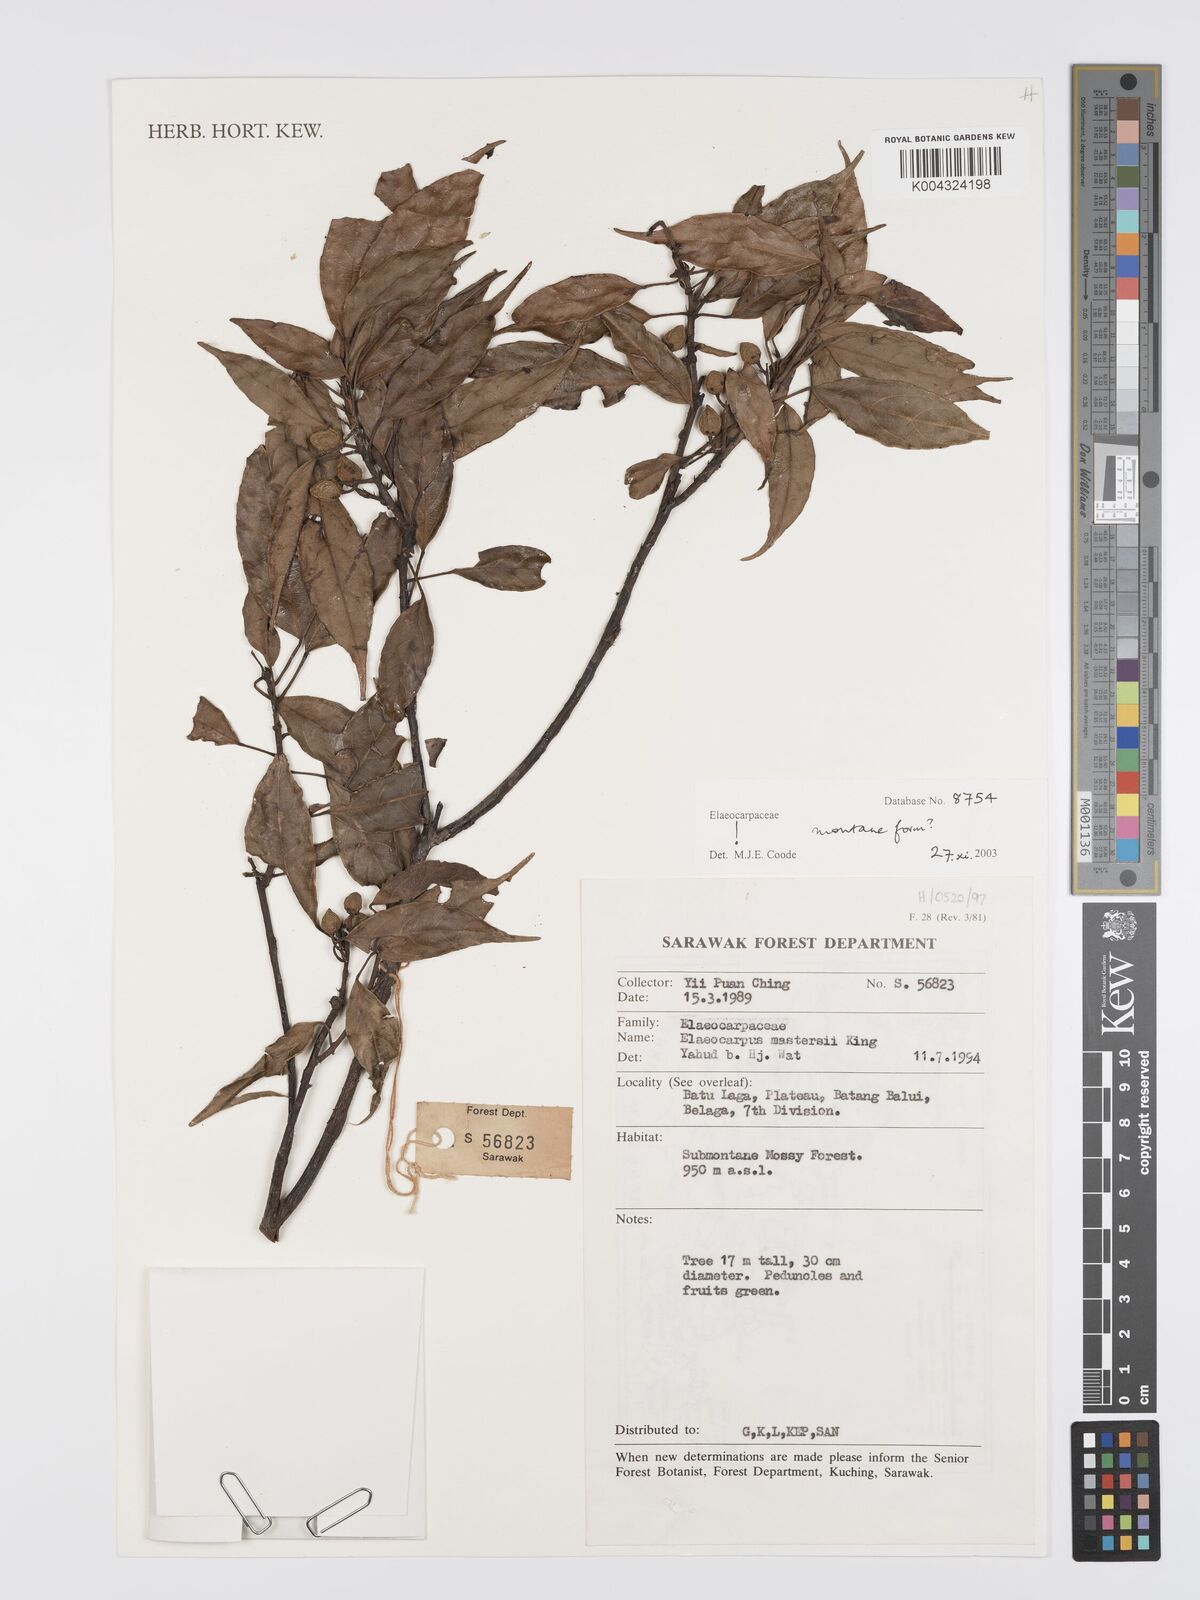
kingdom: Plantae
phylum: Tracheophyta
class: Magnoliopsida
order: Oxalidales
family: Elaeocarpaceae
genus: Elaeocarpus
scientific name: Elaeocarpus mastersii
